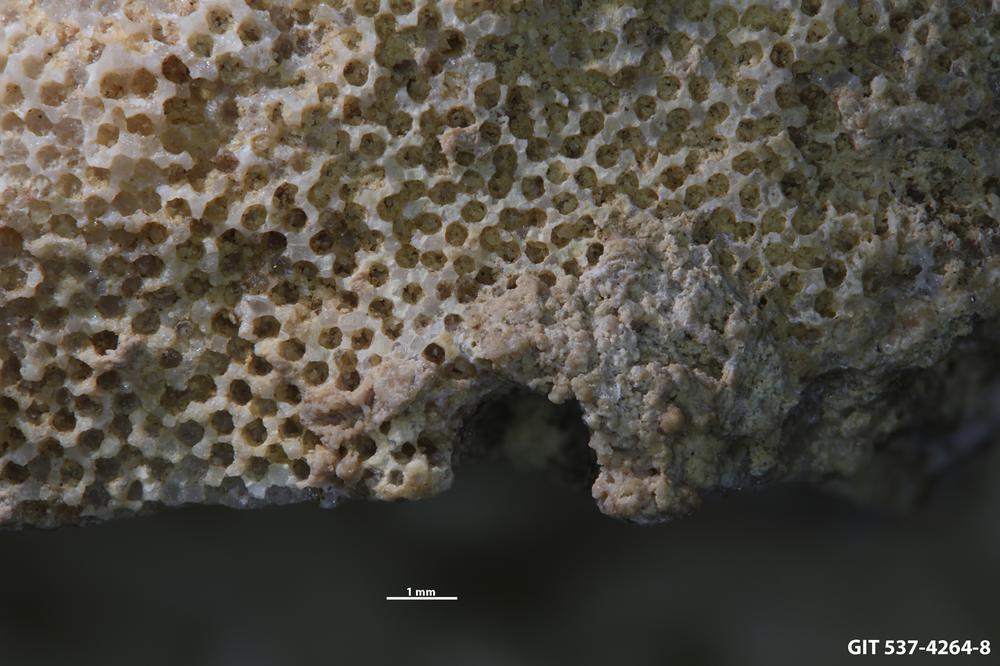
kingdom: Animalia
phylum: Cnidaria
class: Scyphozoa
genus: Climacoconus
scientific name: Climacoconus
